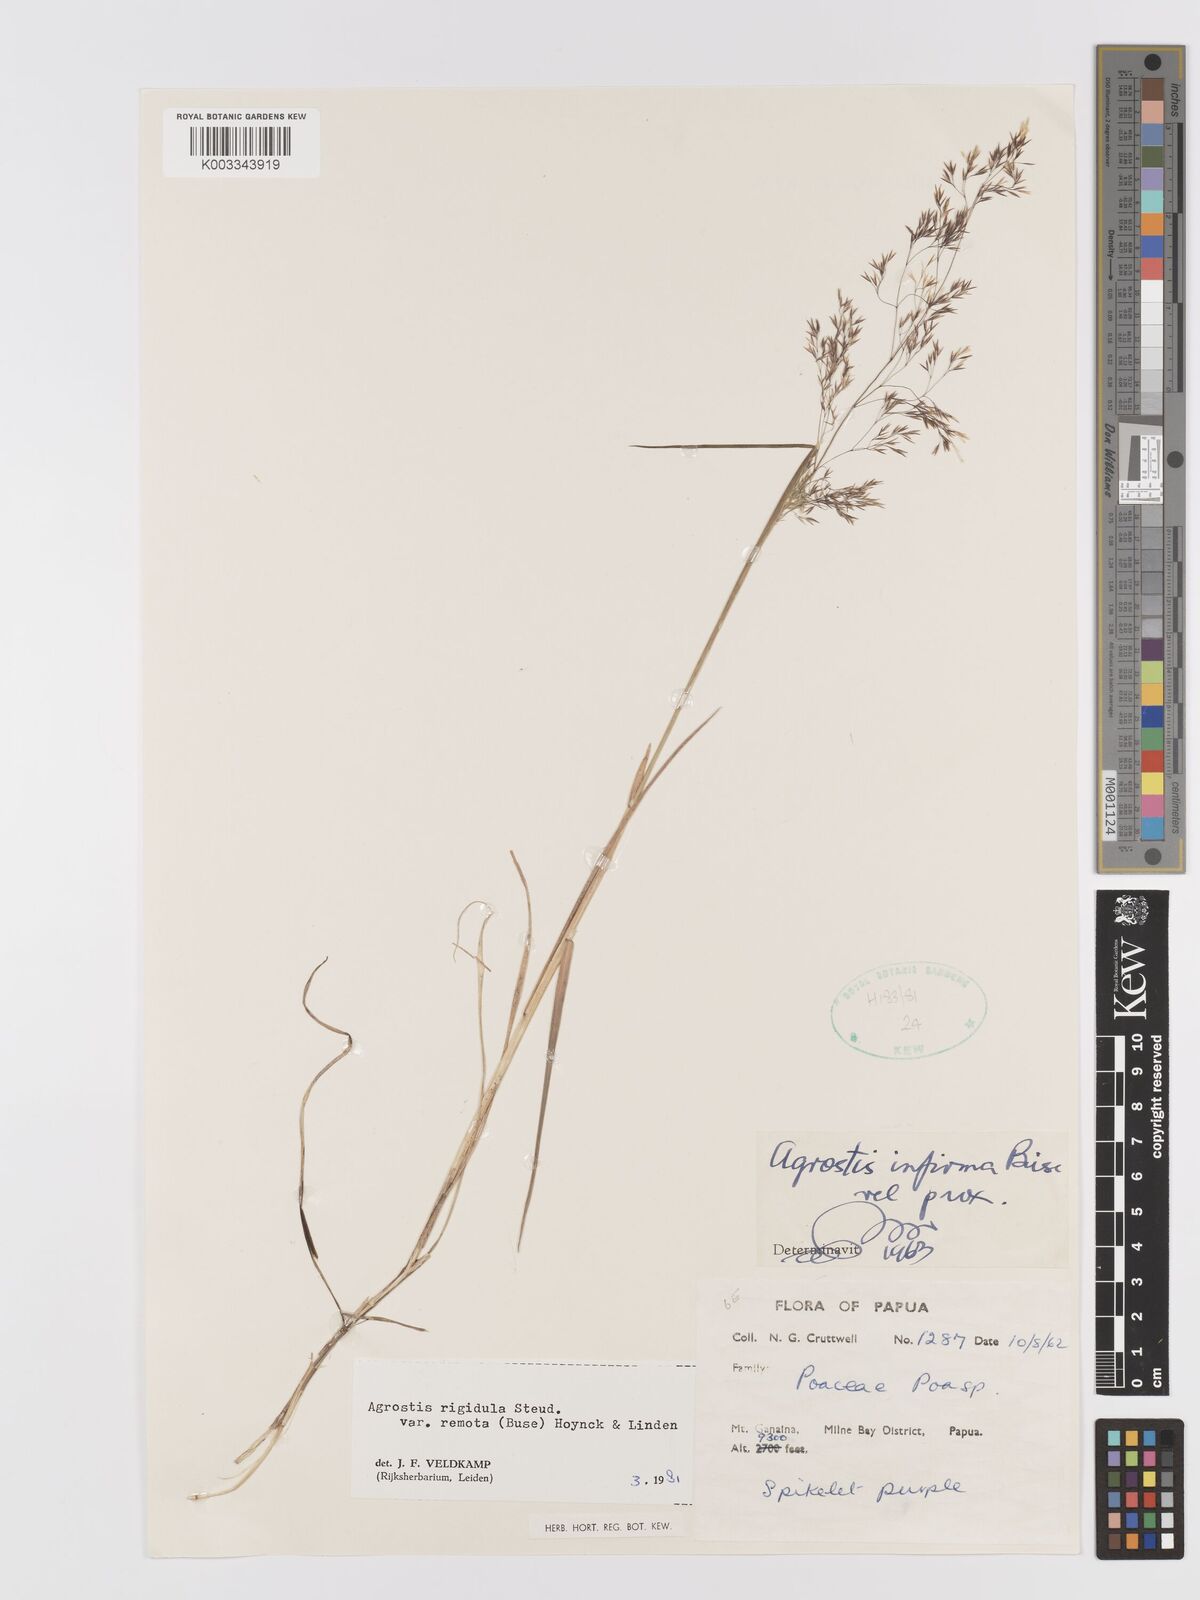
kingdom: Plantae
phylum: Tracheophyta
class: Liliopsida
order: Poales
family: Poaceae
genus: Agrostis
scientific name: Agrostis infirma
